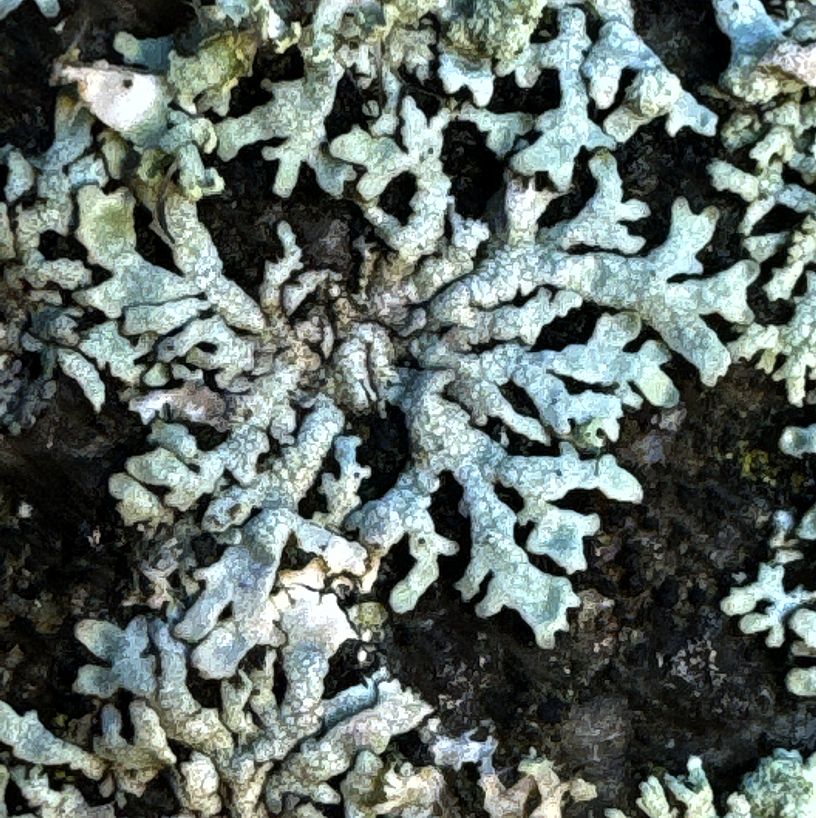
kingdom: Fungi
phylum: Ascomycota
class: Lecanoromycetes
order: Caliciales
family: Physciaceae
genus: Physcia
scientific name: Physcia
